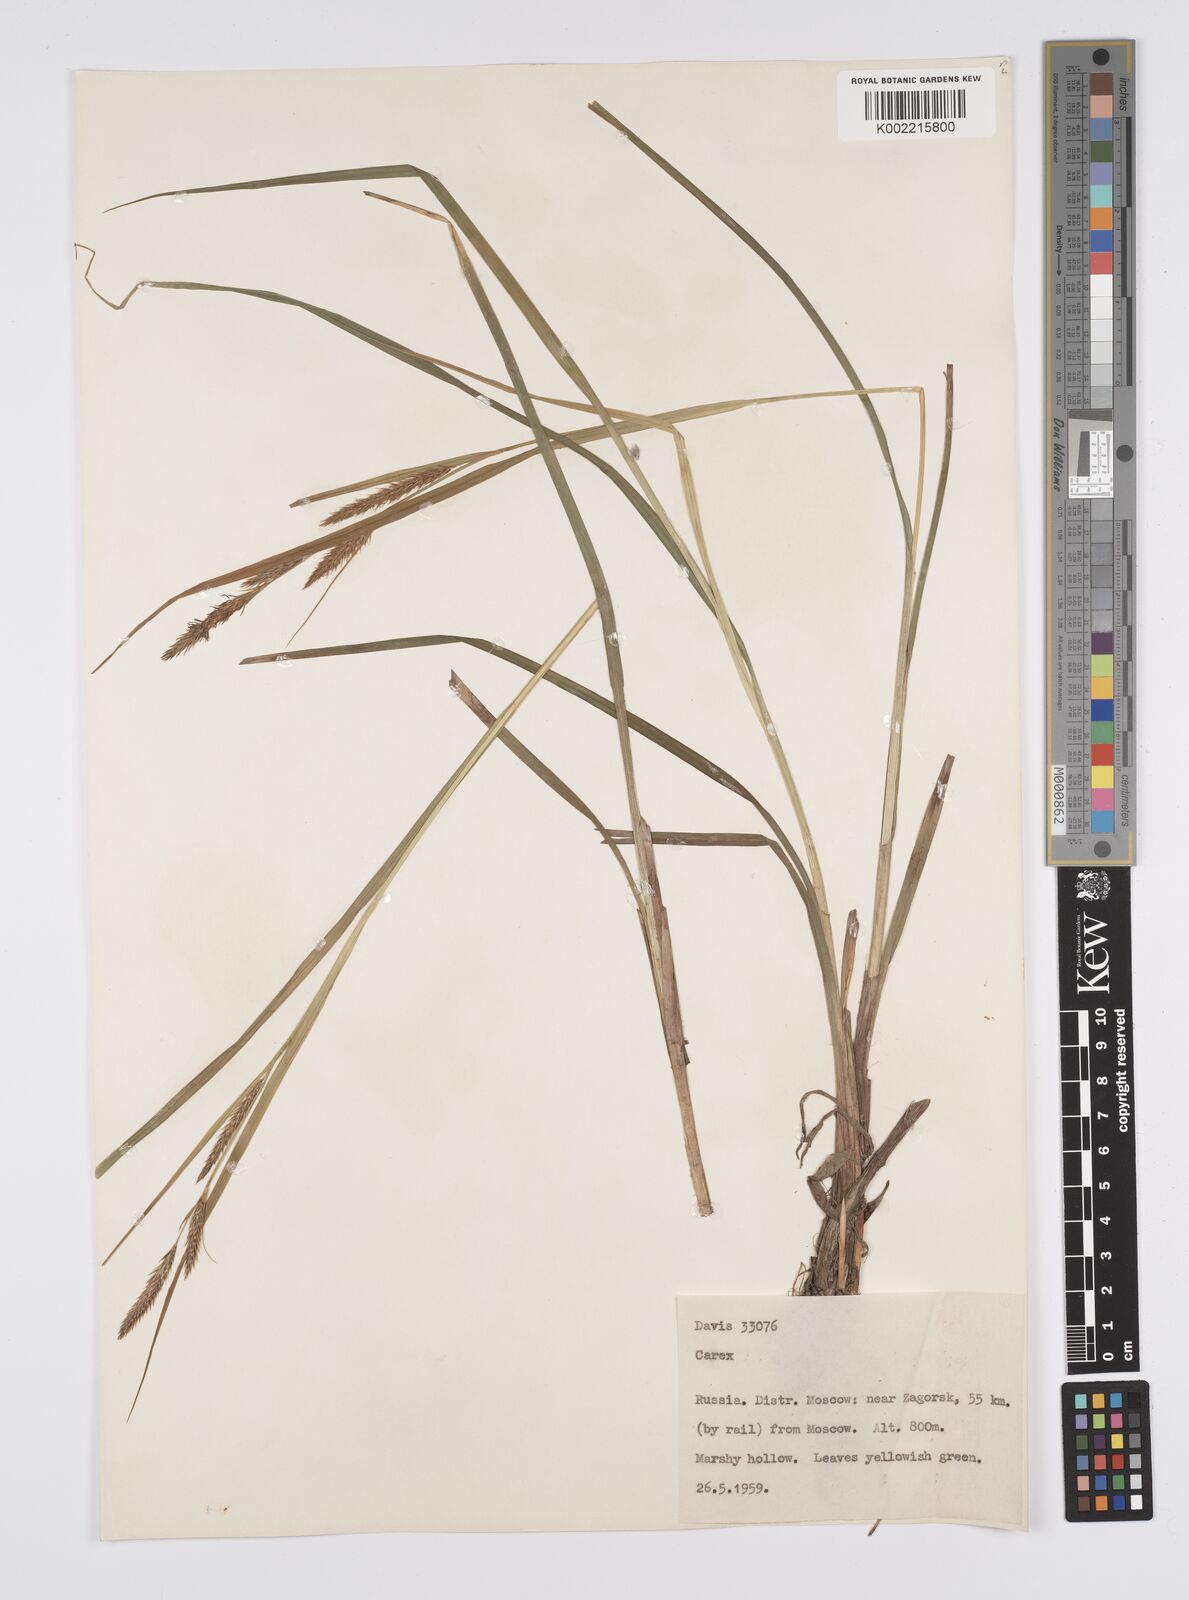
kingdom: Plantae
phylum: Tracheophyta
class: Liliopsida
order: Poales
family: Cyperaceae
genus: Carex
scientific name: Carex
